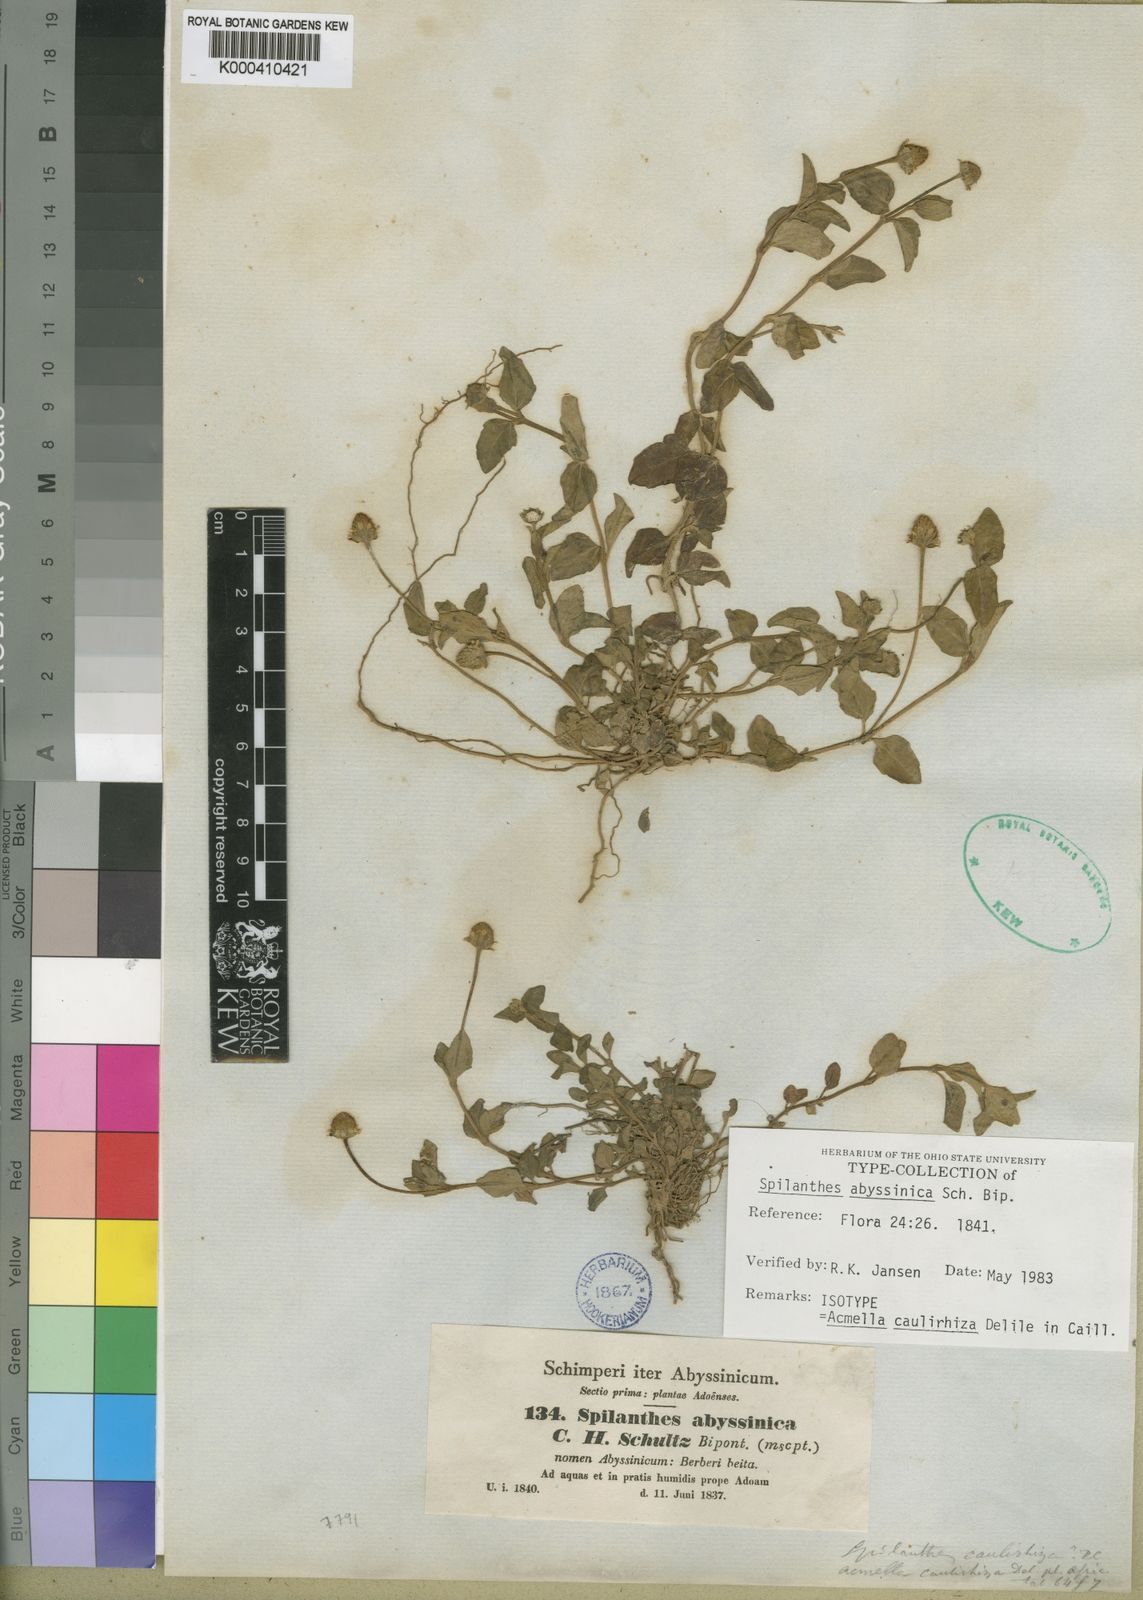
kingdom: Plantae
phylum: Tracheophyta
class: Magnoliopsida
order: Asterales
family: Asteraceae
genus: Acmella
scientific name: Acmella
